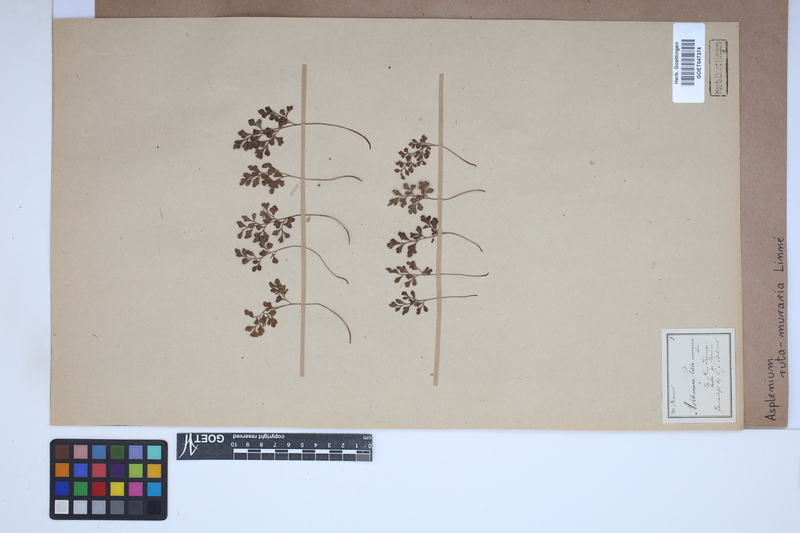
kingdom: Plantae
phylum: Tracheophyta
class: Polypodiopsida
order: Polypodiales
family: Aspleniaceae
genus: Asplenium
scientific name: Asplenium ruta-muraria
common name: Wall-rue
